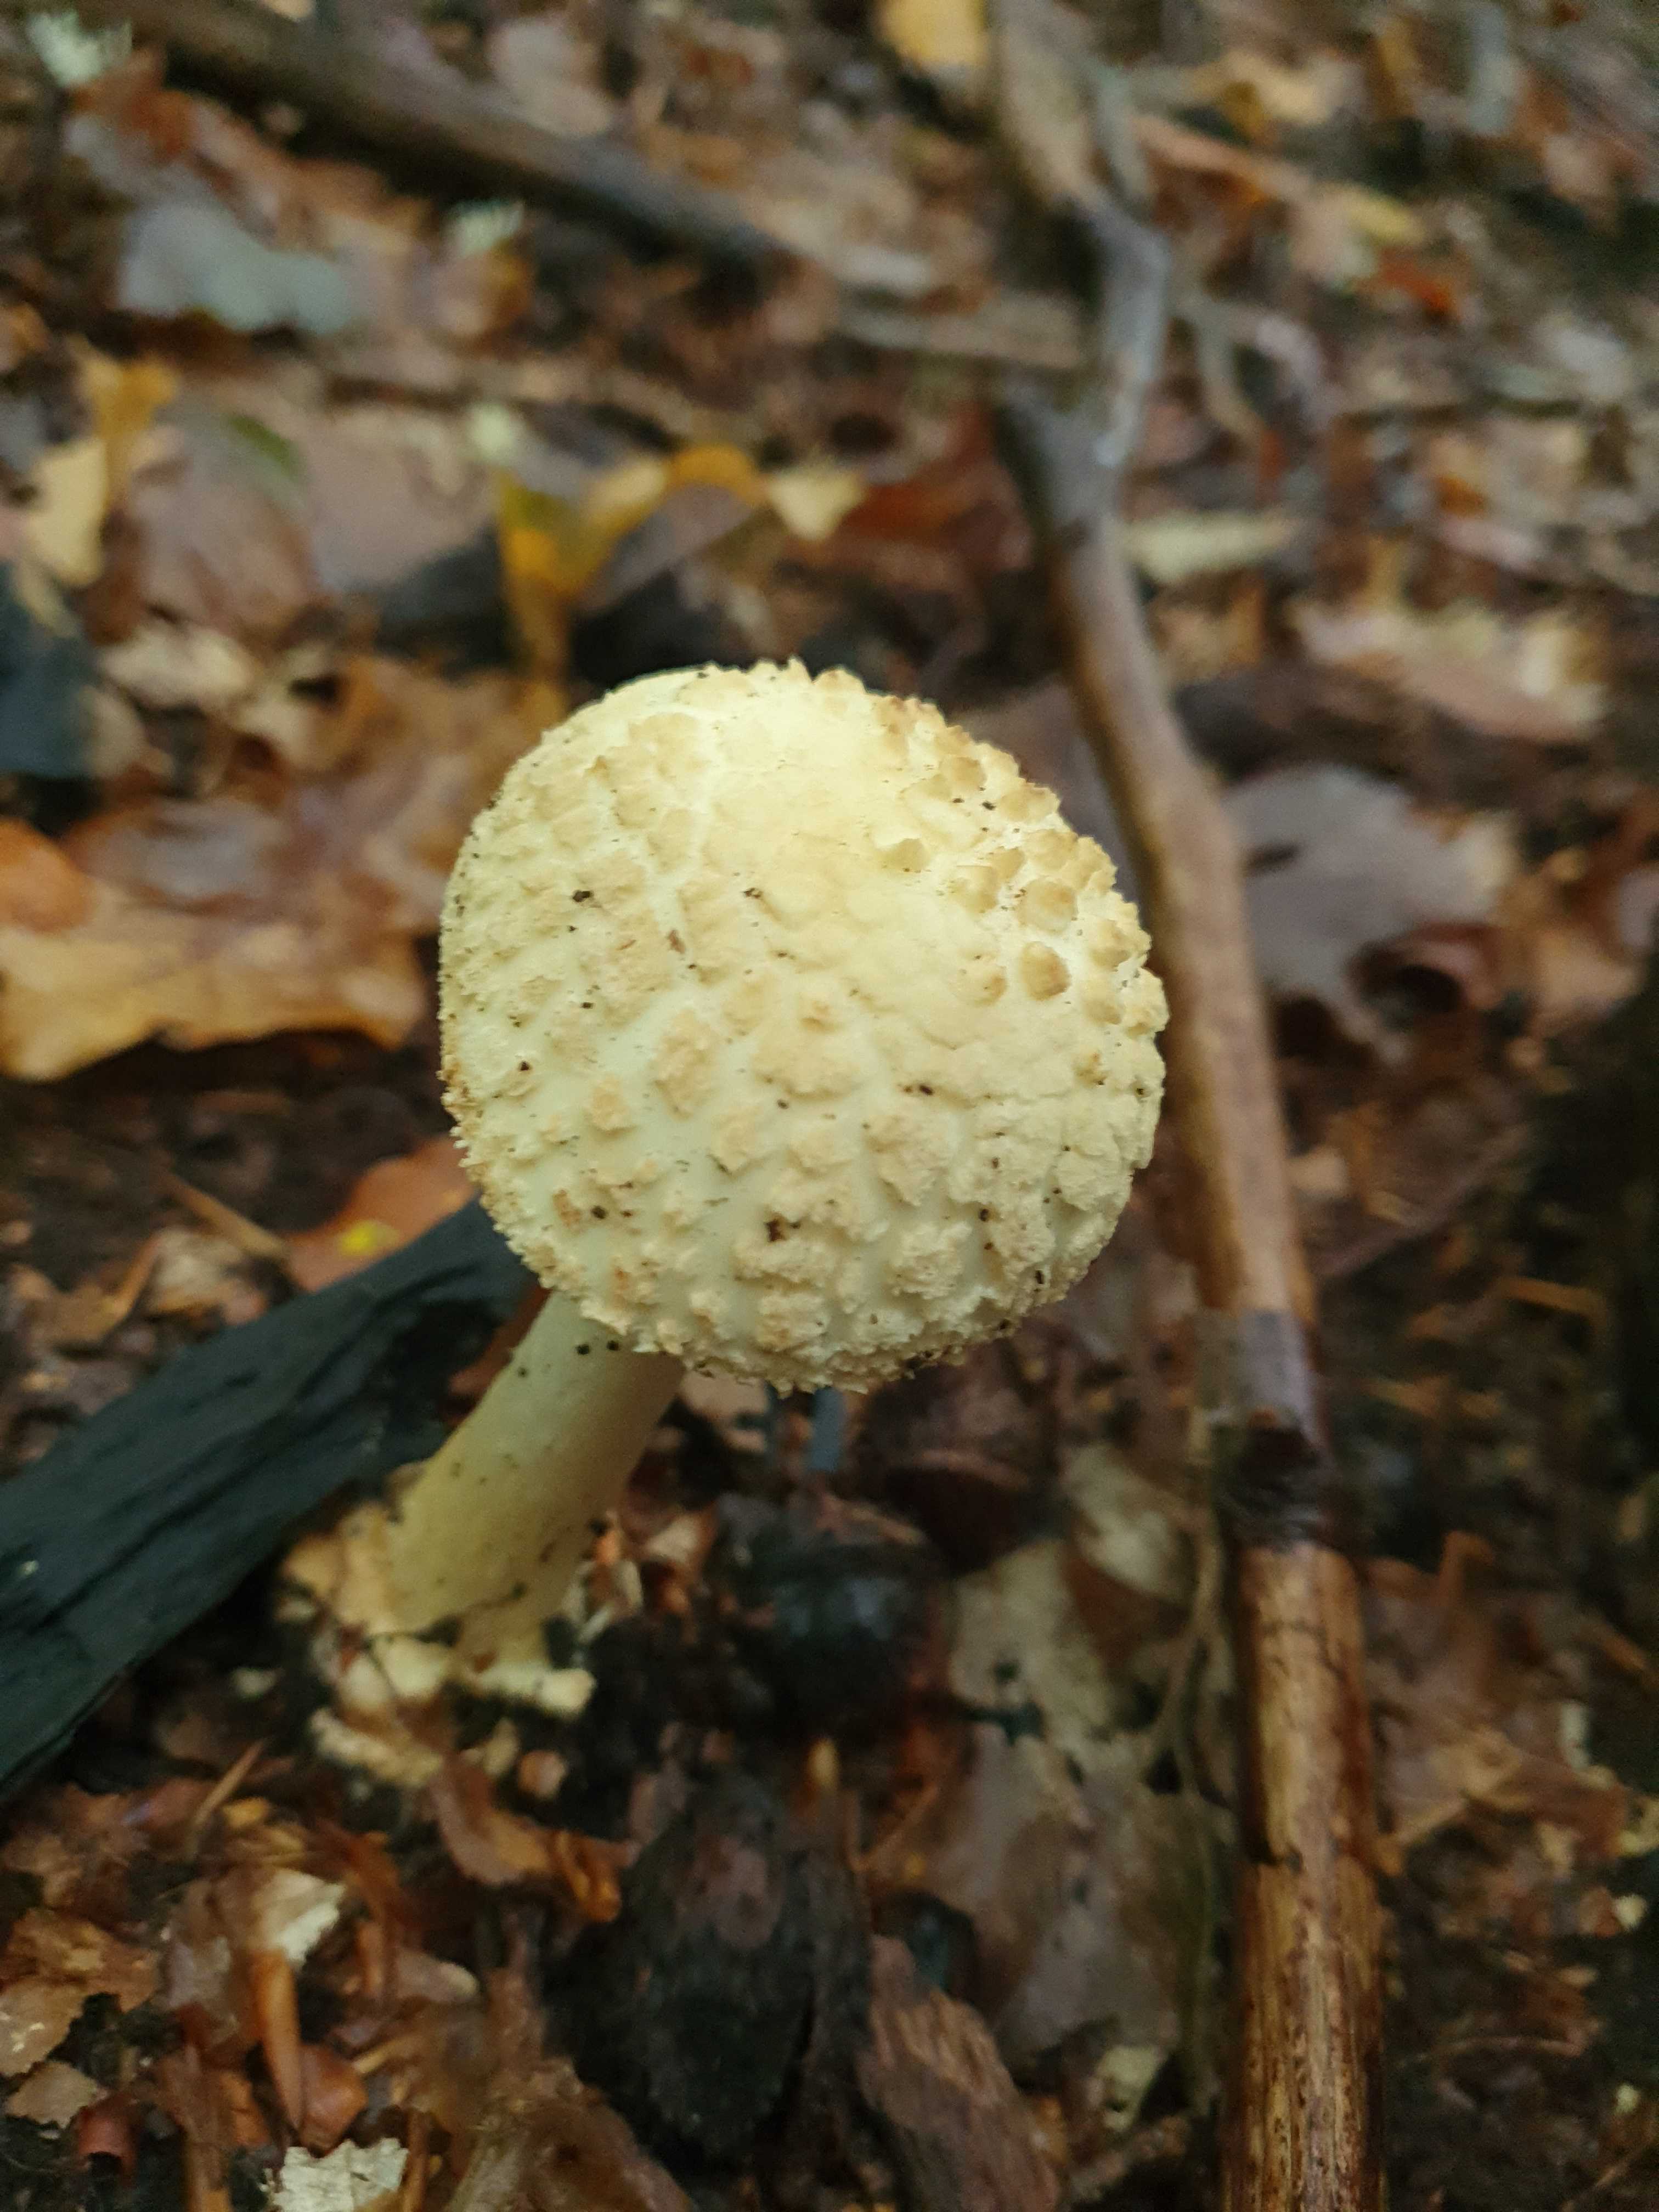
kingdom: Fungi
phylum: Basidiomycota
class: Agaricomycetes
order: Agaricales
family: Amanitaceae
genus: Amanita
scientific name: Amanita citrina
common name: kugleknoldet fluesvamp
